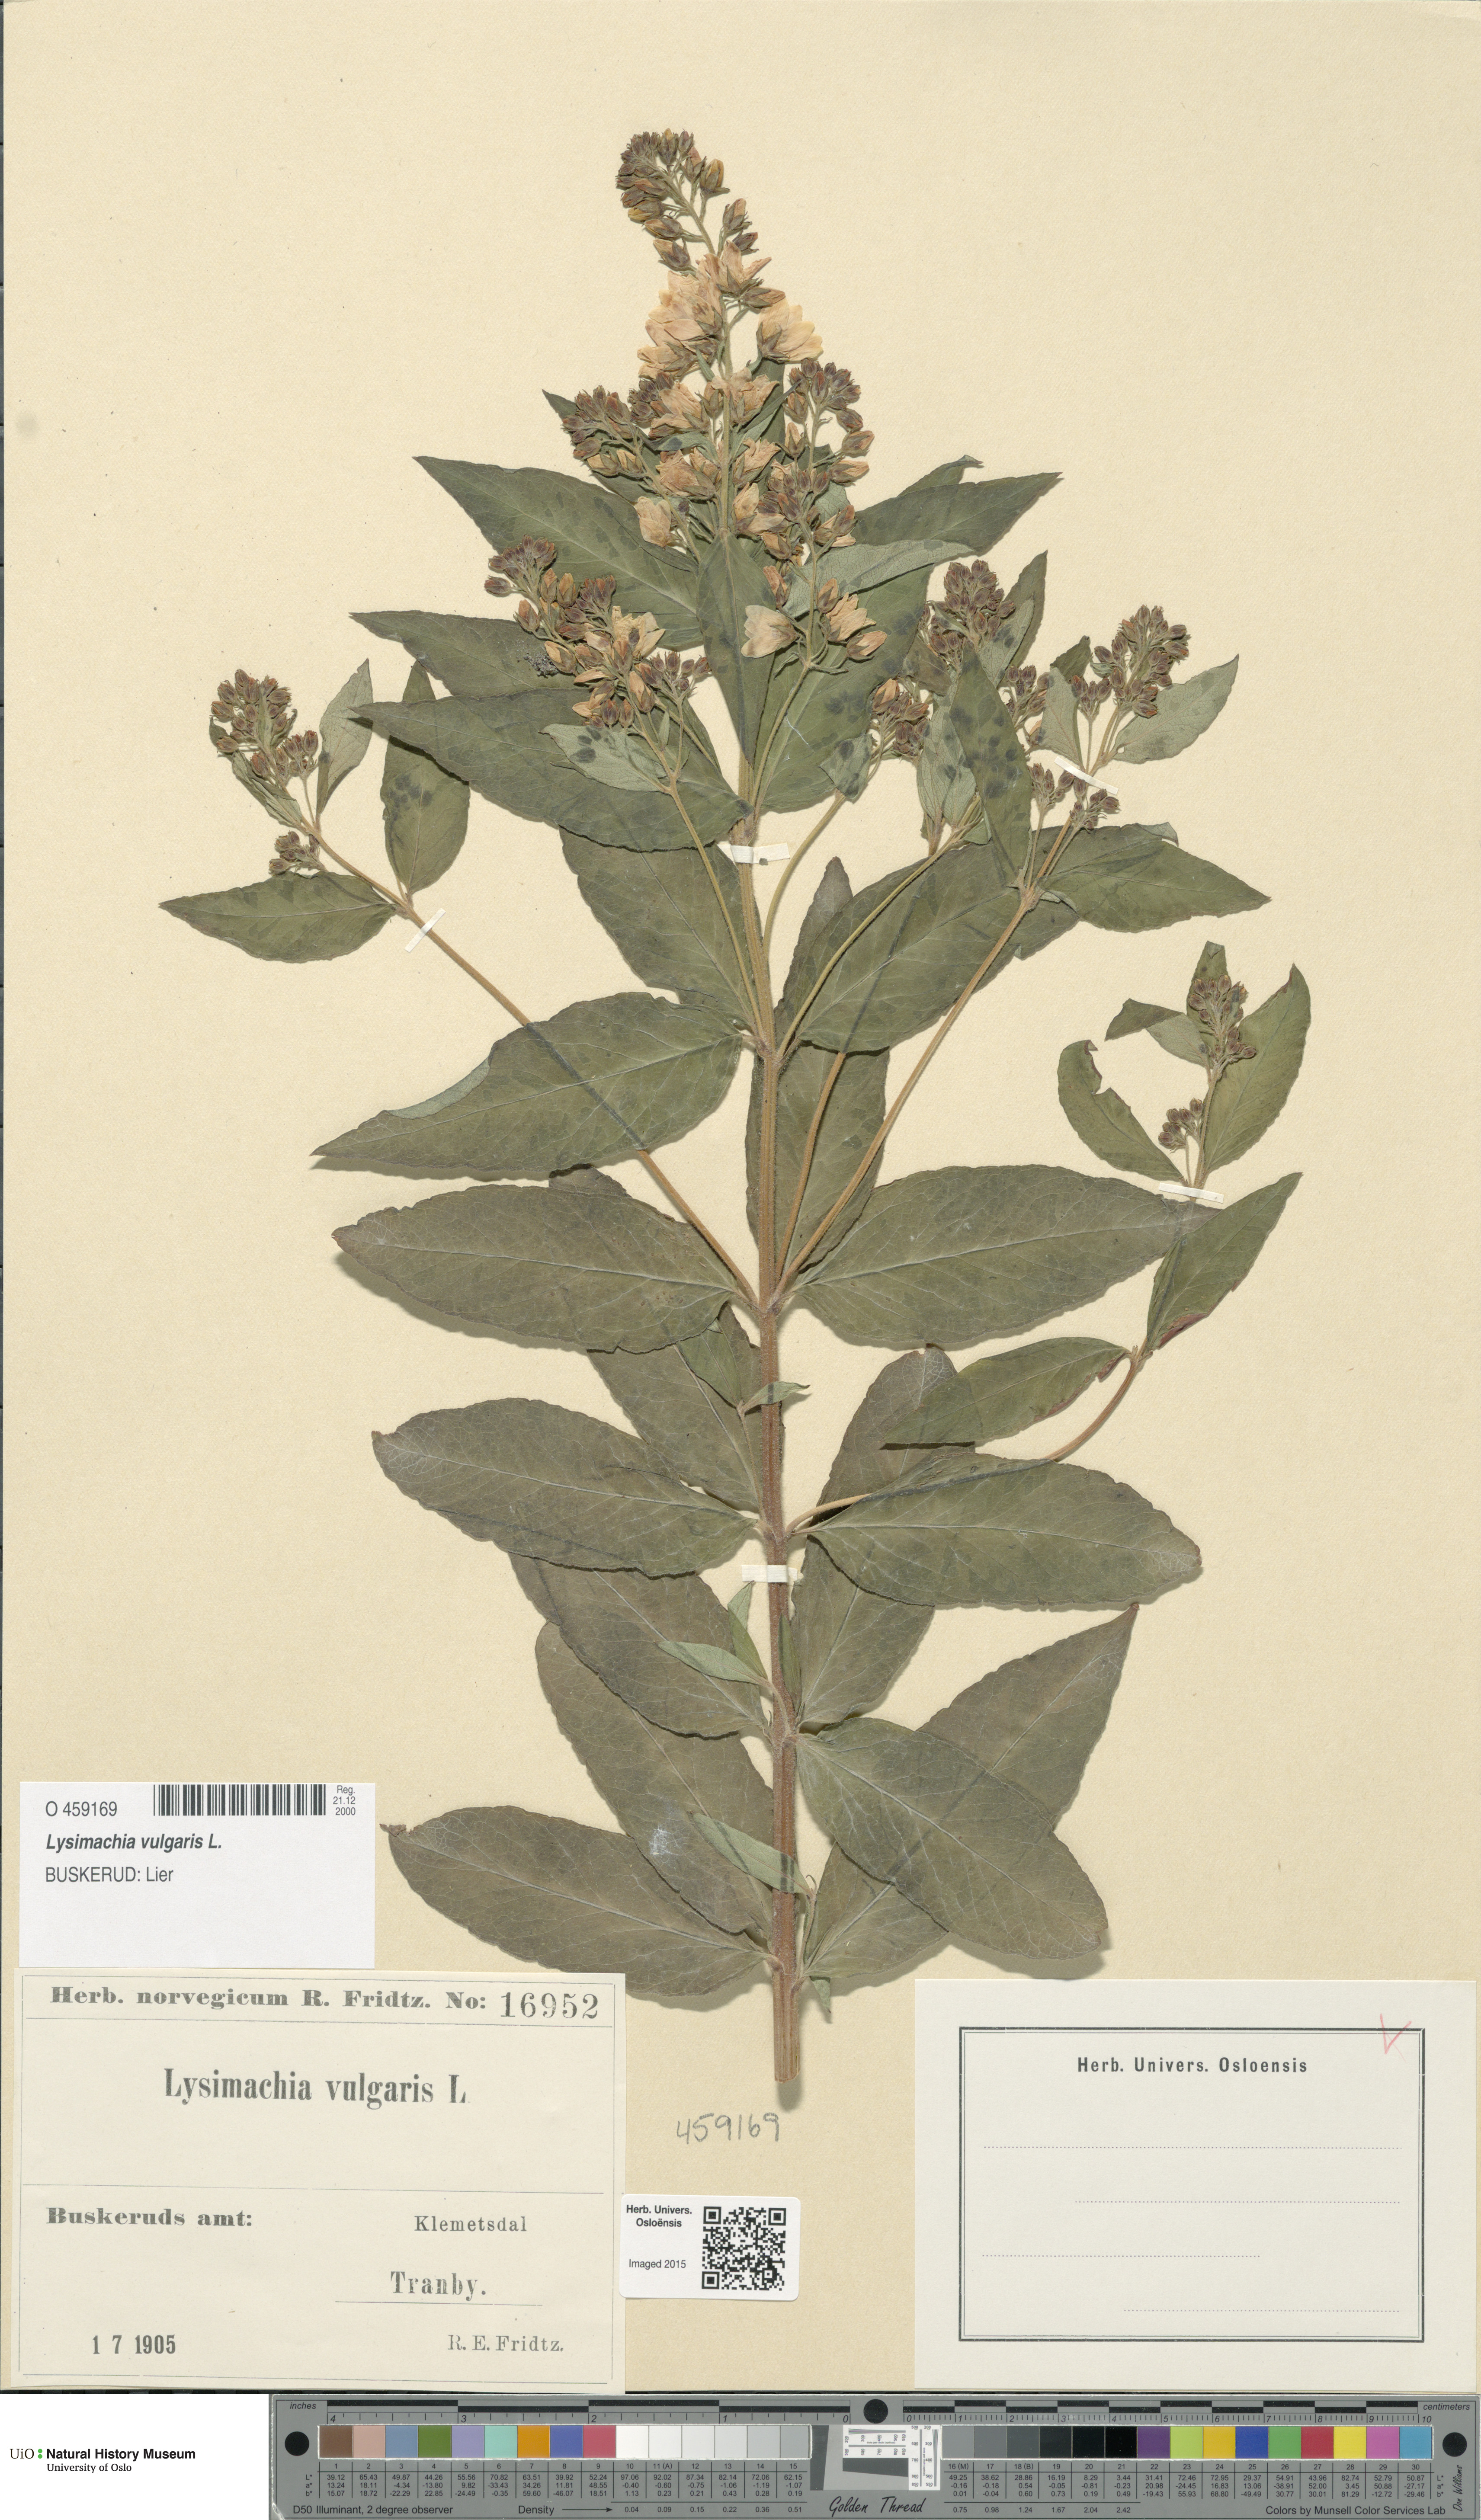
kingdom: Plantae
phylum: Tracheophyta
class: Magnoliopsida
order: Ericales
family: Primulaceae
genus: Lysimachia
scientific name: Lysimachia vulgaris
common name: Yellow loosestrife
